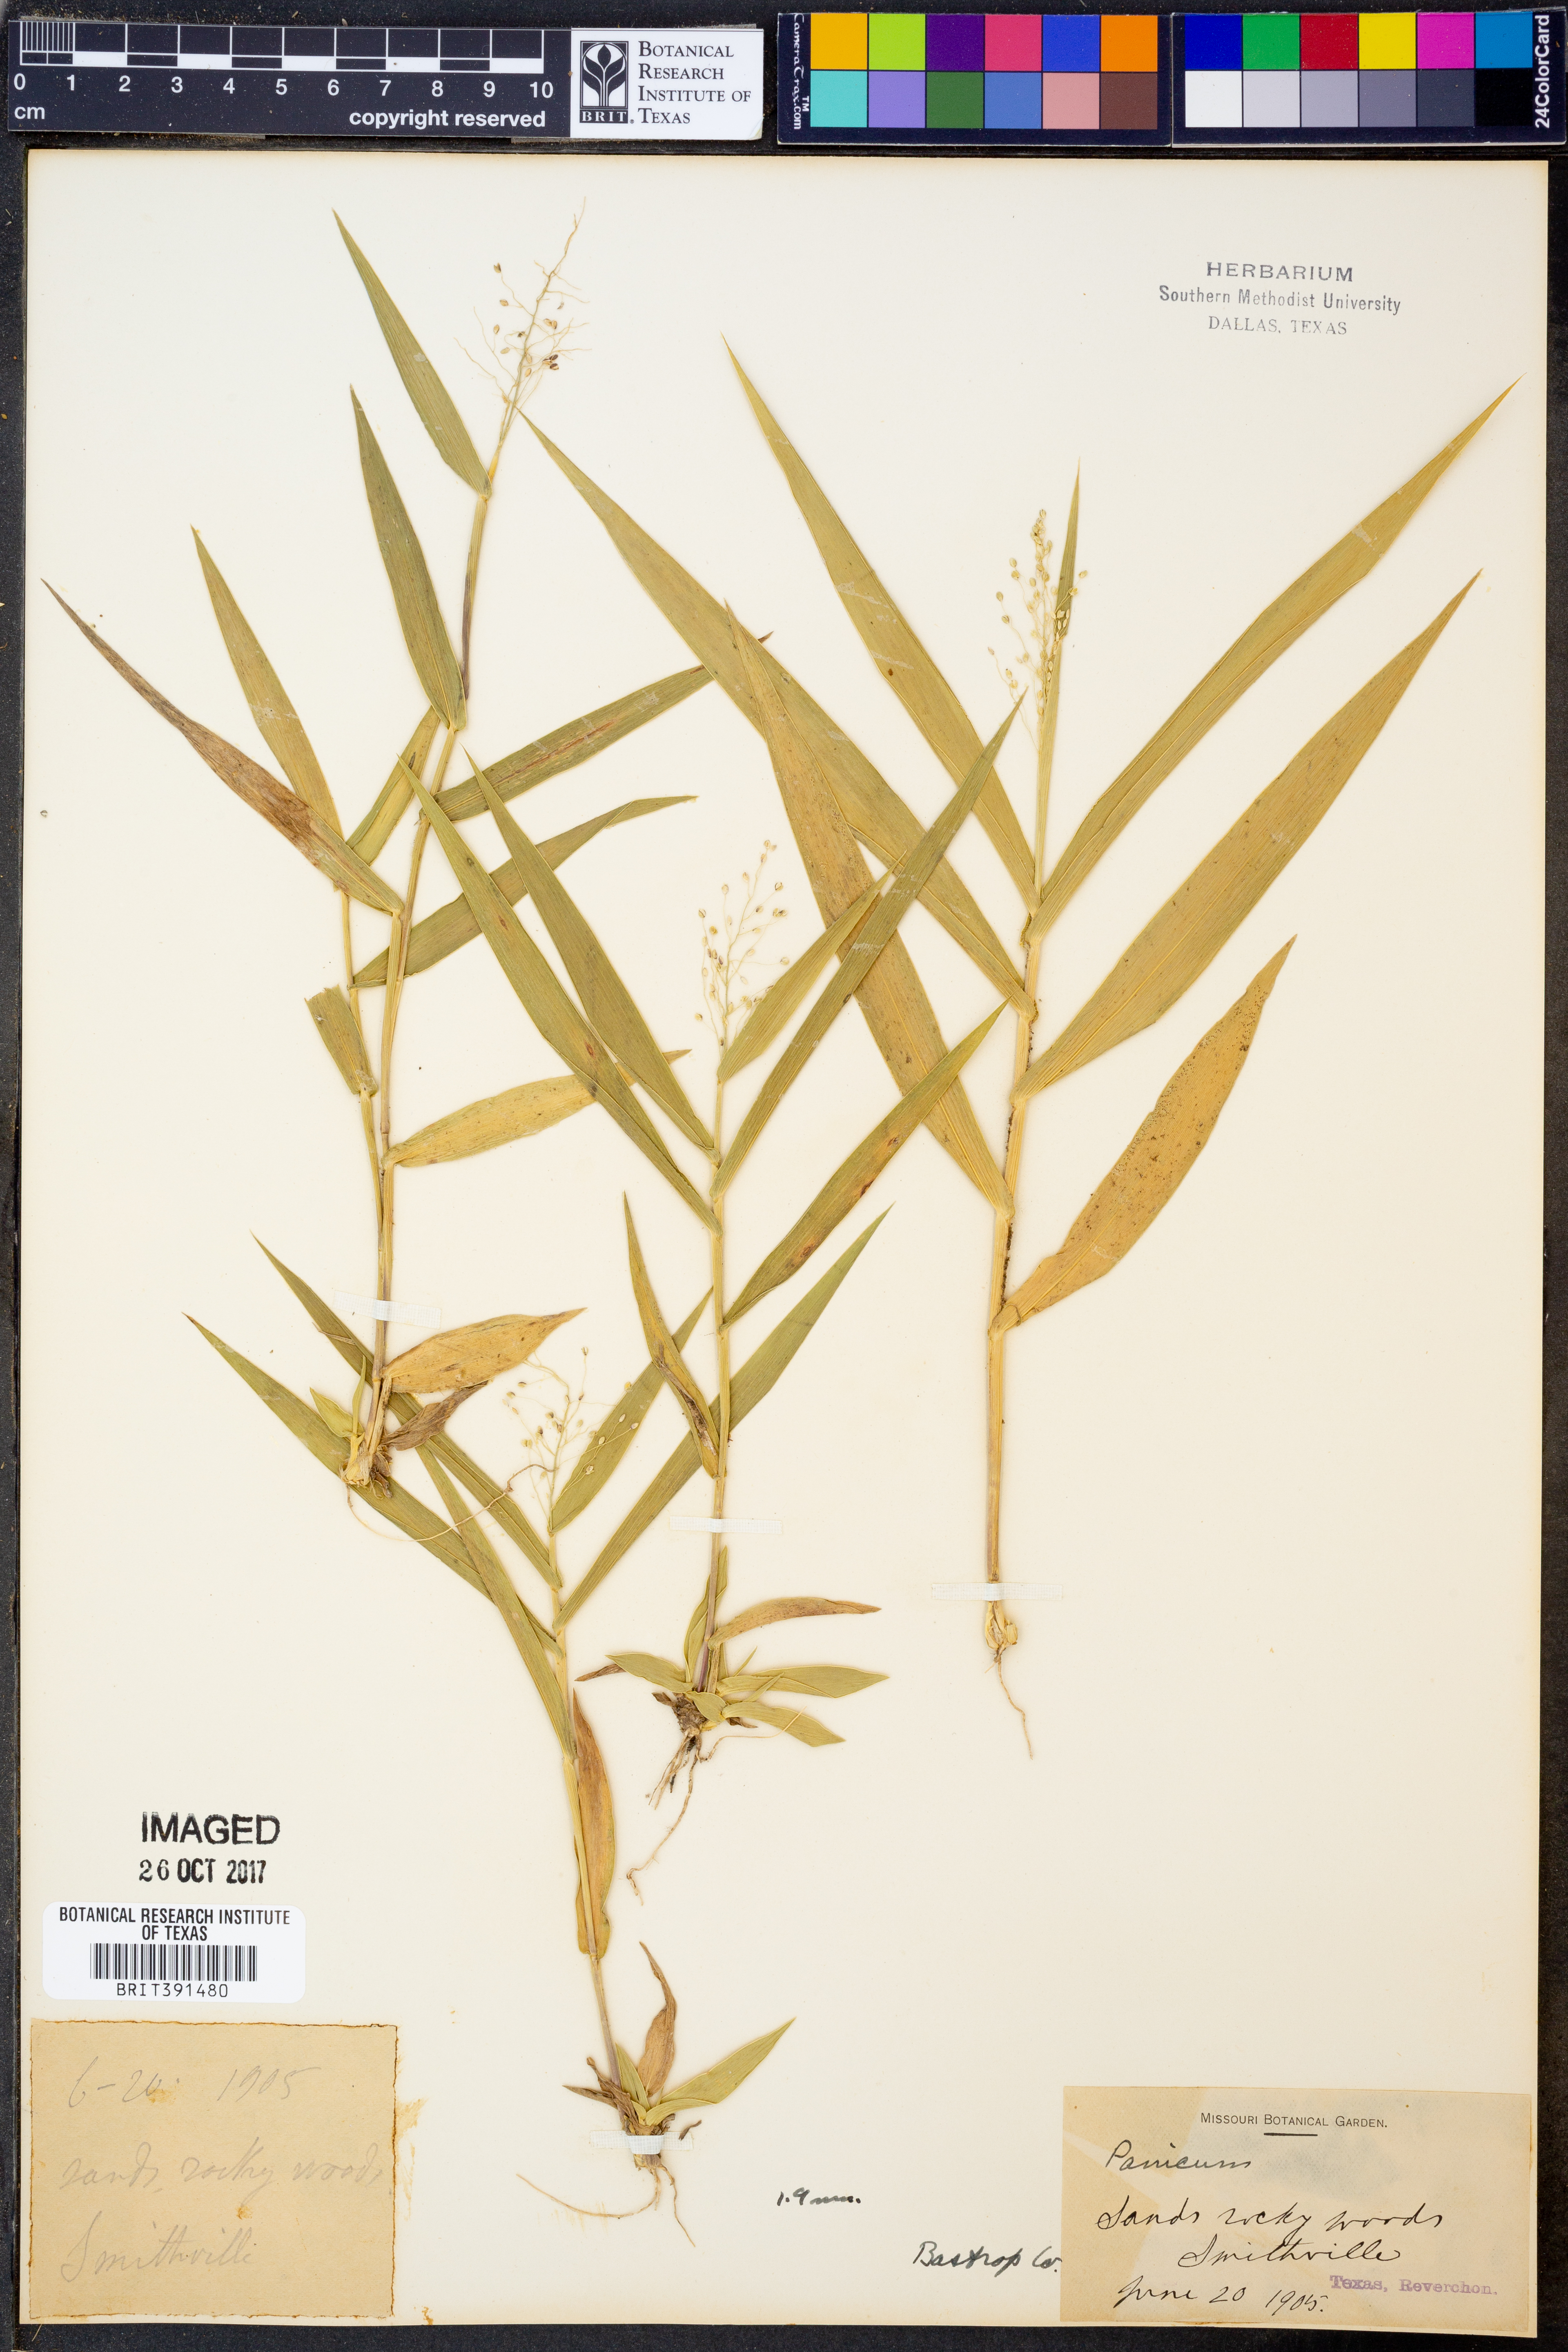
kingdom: Plantae
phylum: Tracheophyta
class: Liliopsida
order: Poales
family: Poaceae
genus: Panicum
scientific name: Panicum
